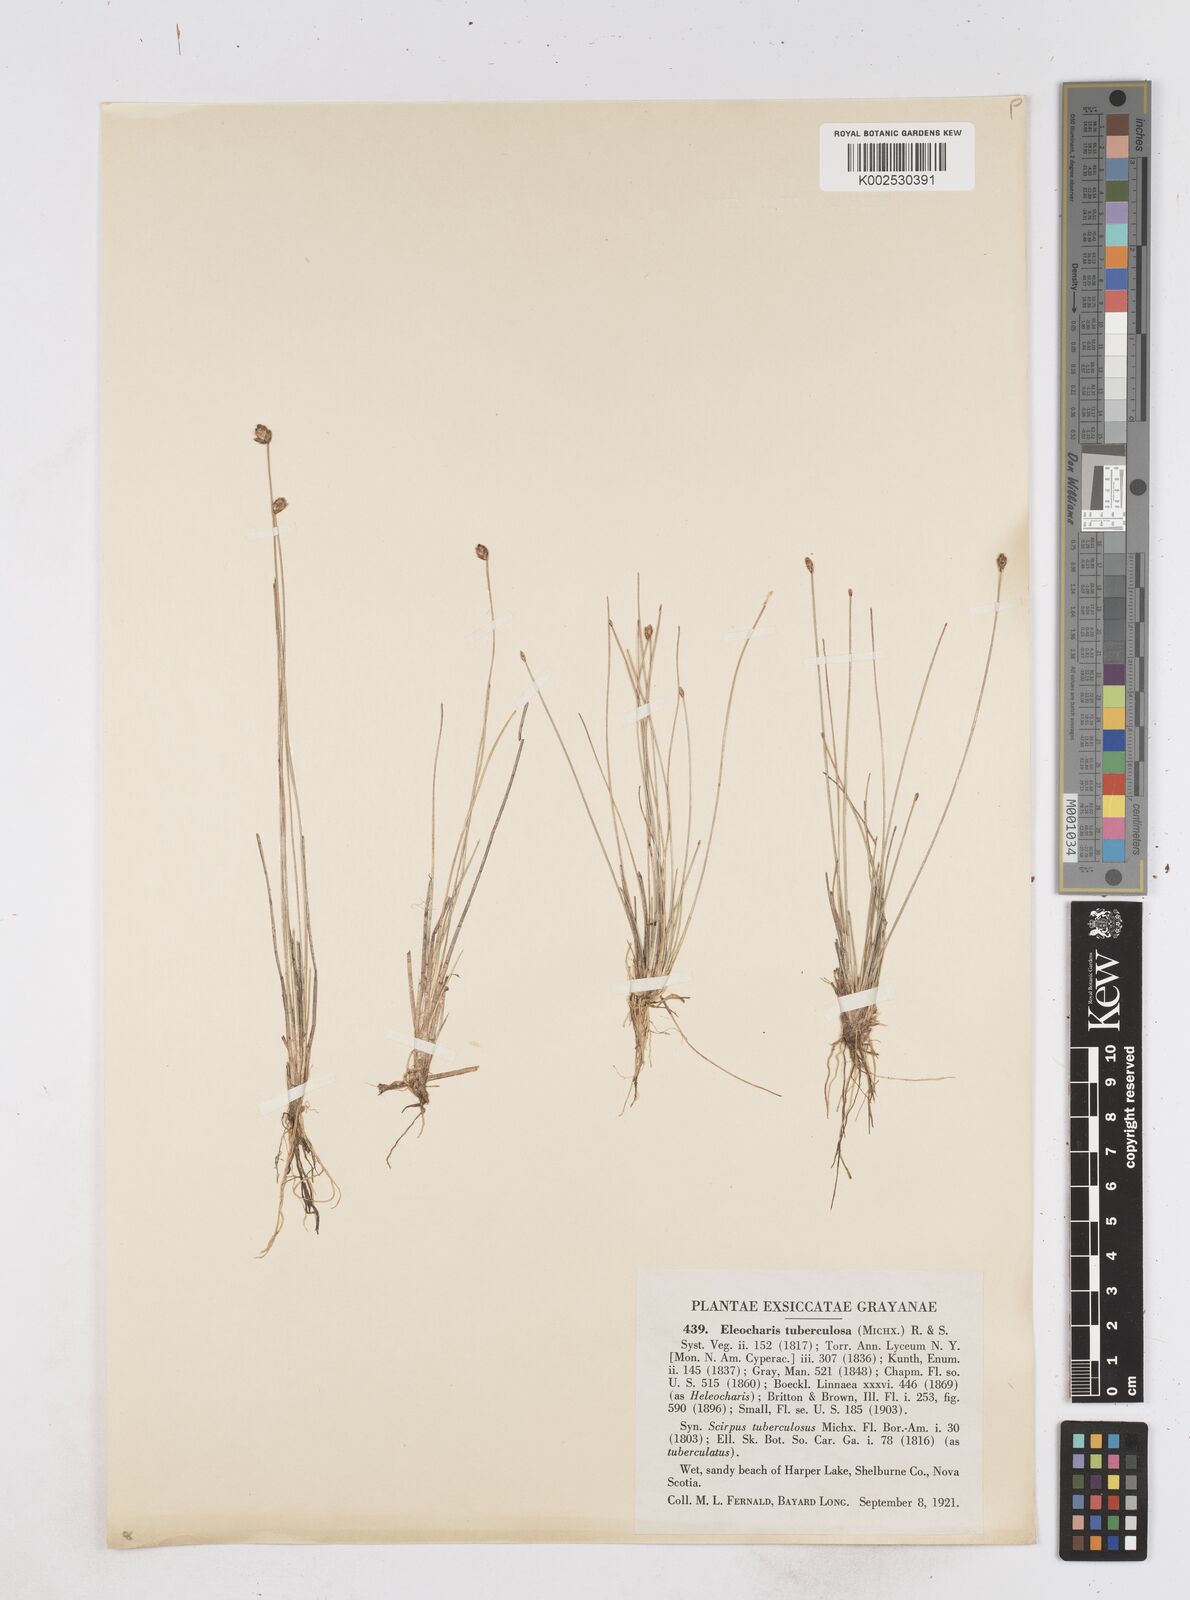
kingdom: Plantae
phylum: Tracheophyta
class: Liliopsida
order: Poales
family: Cyperaceae
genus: Eleocharis
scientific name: Eleocharis tuberculosa
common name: Cone-cup spikerush
